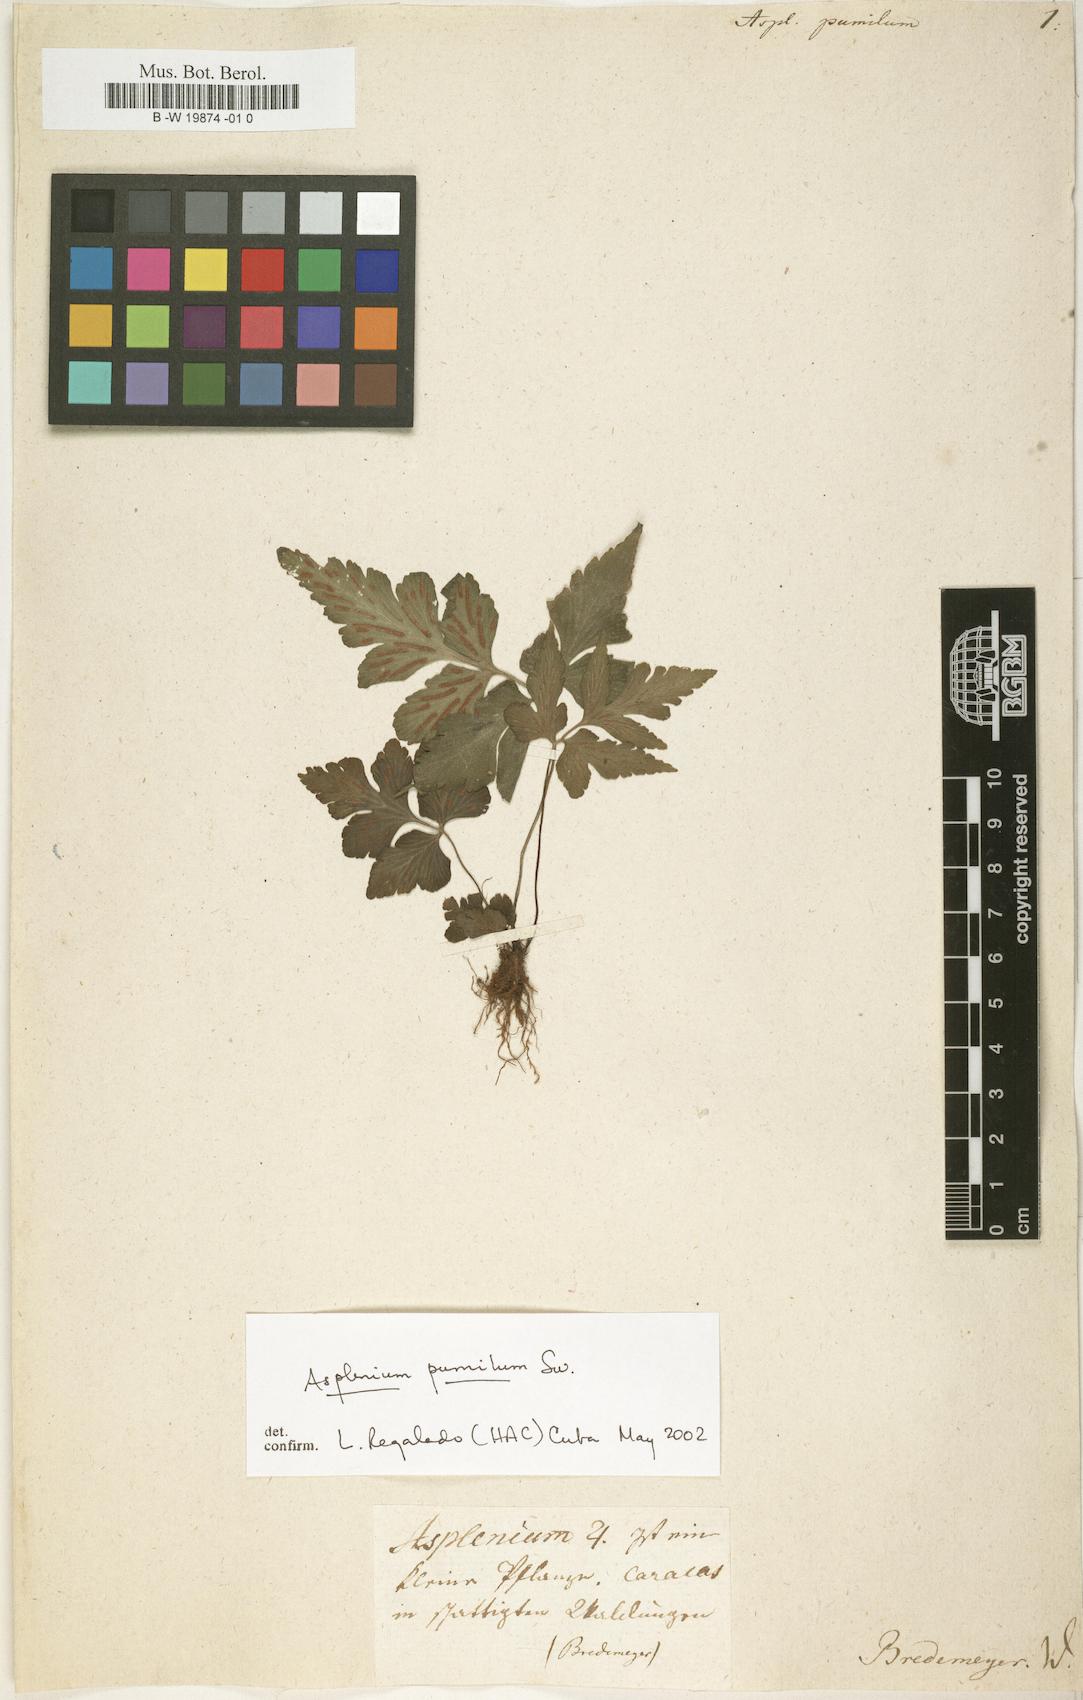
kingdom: Plantae
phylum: Tracheophyta
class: Polypodiopsida
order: Polypodiales
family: Aspleniaceae
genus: Asplenium
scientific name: Asplenium pumilum
